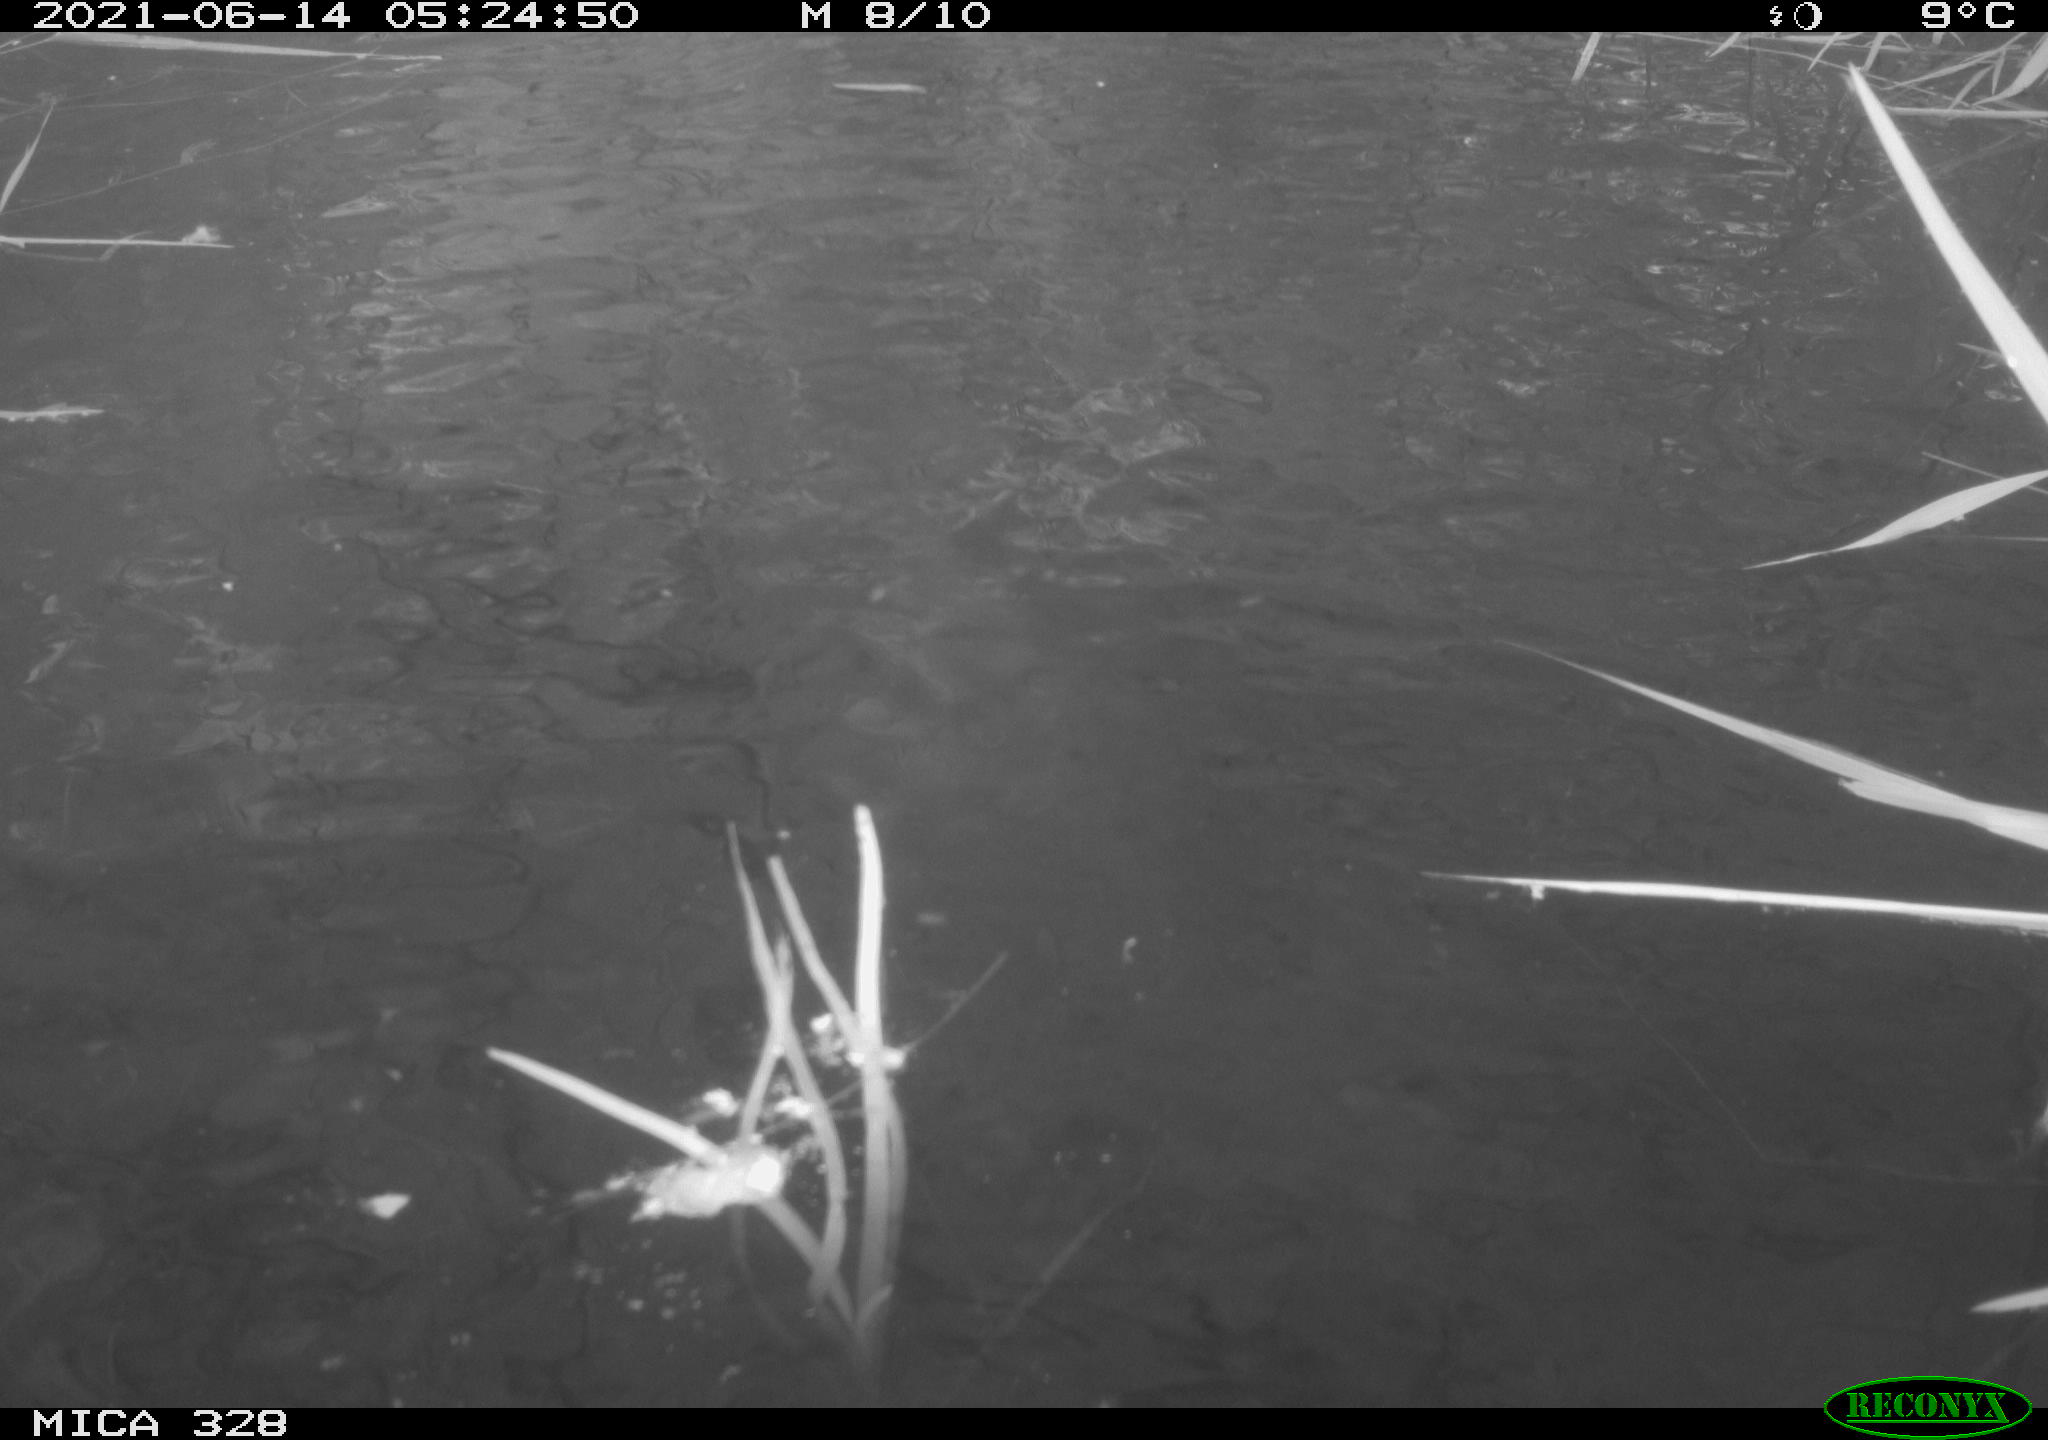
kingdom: Animalia
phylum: Chordata
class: Aves
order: Anseriformes
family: Anatidae
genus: Aix
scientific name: Aix galericulata
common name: Mandarin duck
